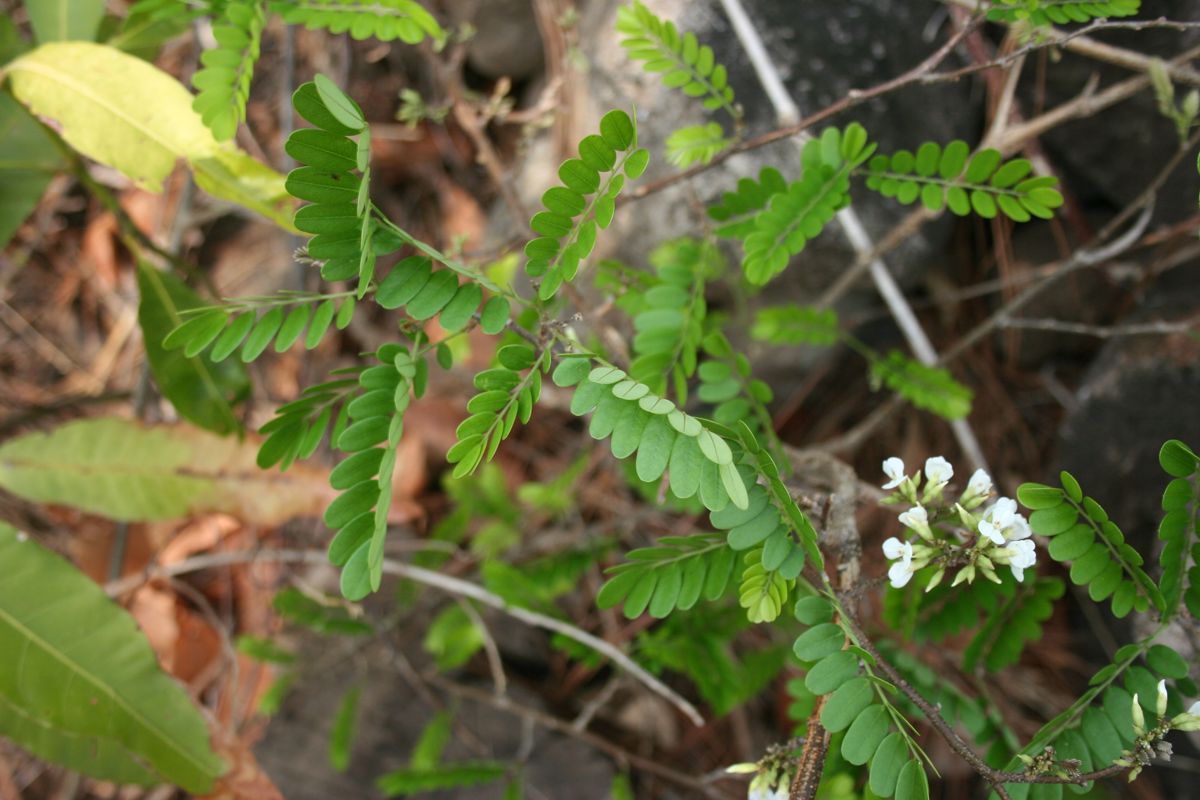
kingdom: Plantae
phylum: Tracheophyta
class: Magnoliopsida
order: Fabales
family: Fabaceae
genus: Dalbergia
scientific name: Dalbergia chontalensis
